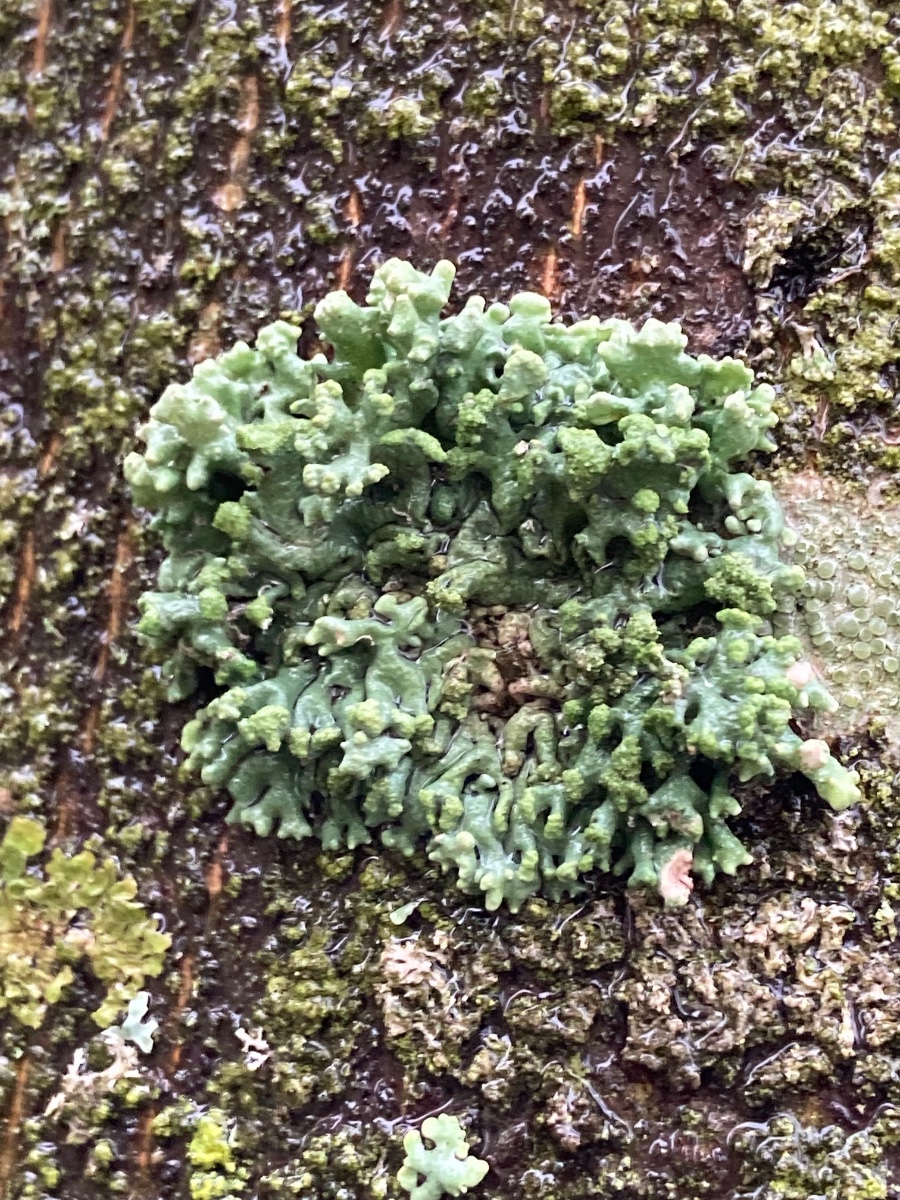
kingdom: Fungi
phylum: Ascomycota
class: Lecanoromycetes
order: Lecanorales
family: Parmeliaceae
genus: Hypogymnia
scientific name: Hypogymnia tubulosa
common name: finger-kvistlav
